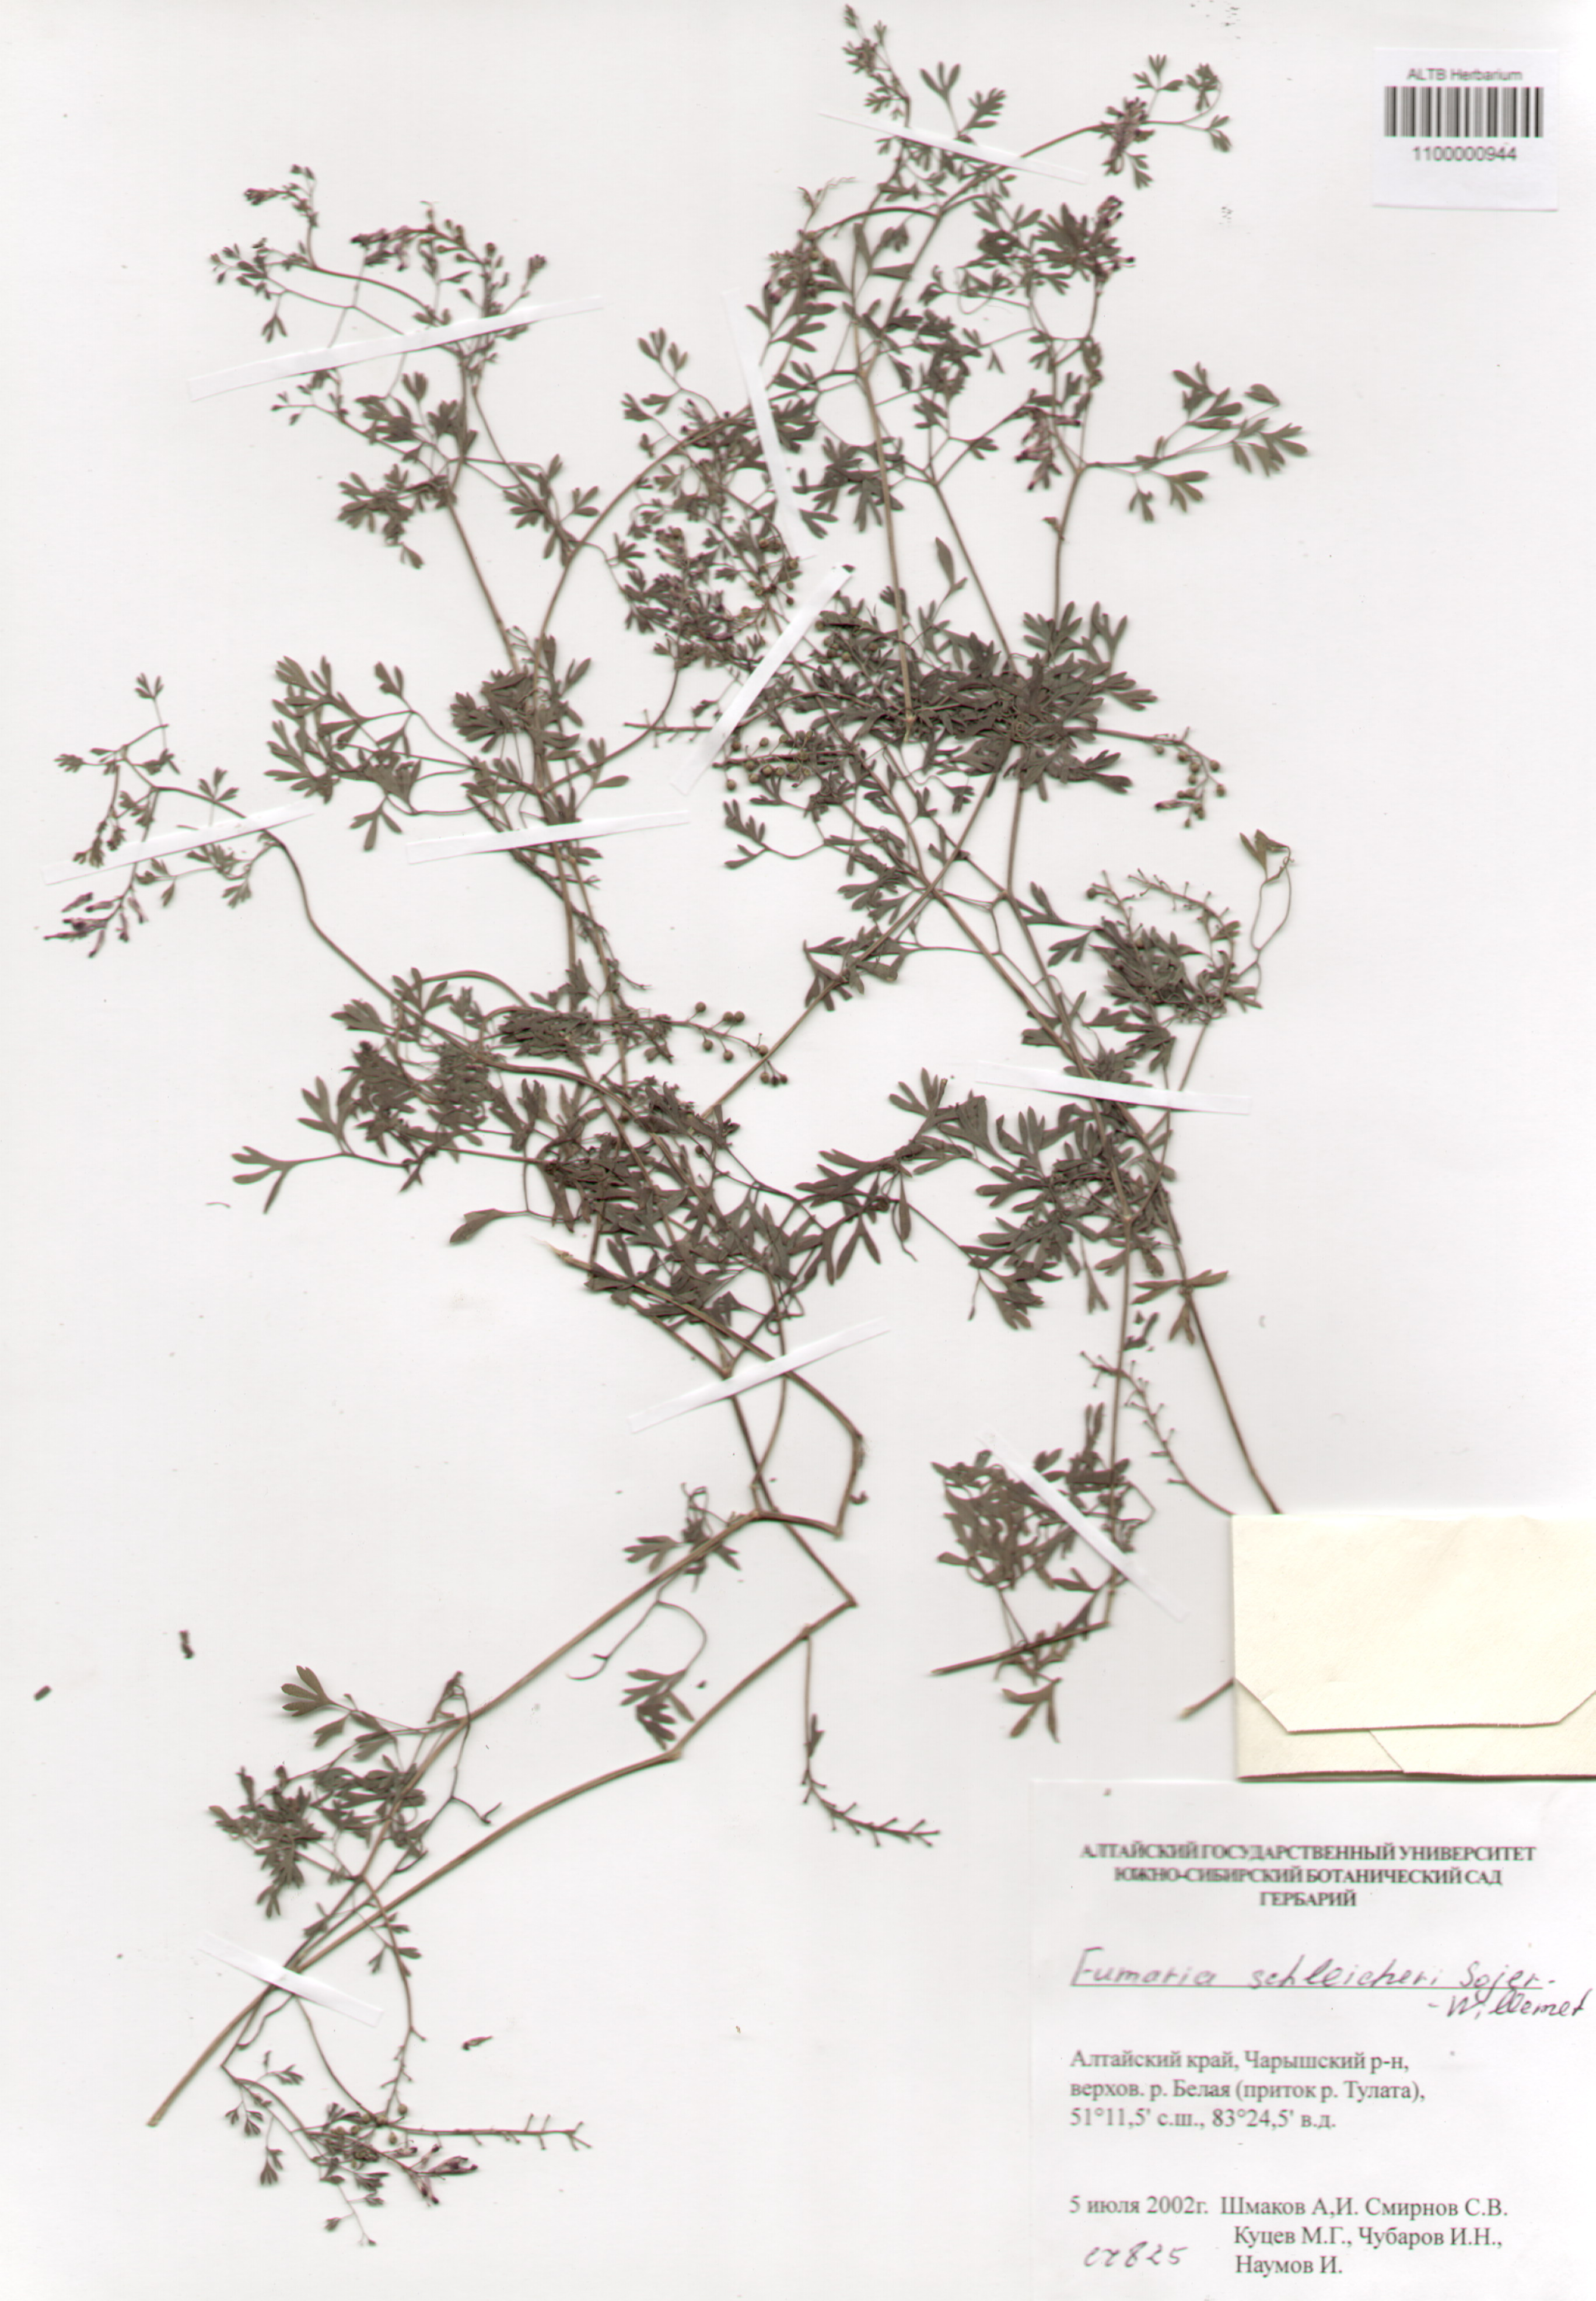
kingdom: Plantae
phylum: Tracheophyta
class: Magnoliopsida
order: Ranunculales
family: Papaveraceae
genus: Fumaria
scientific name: Fumaria schleicheri
